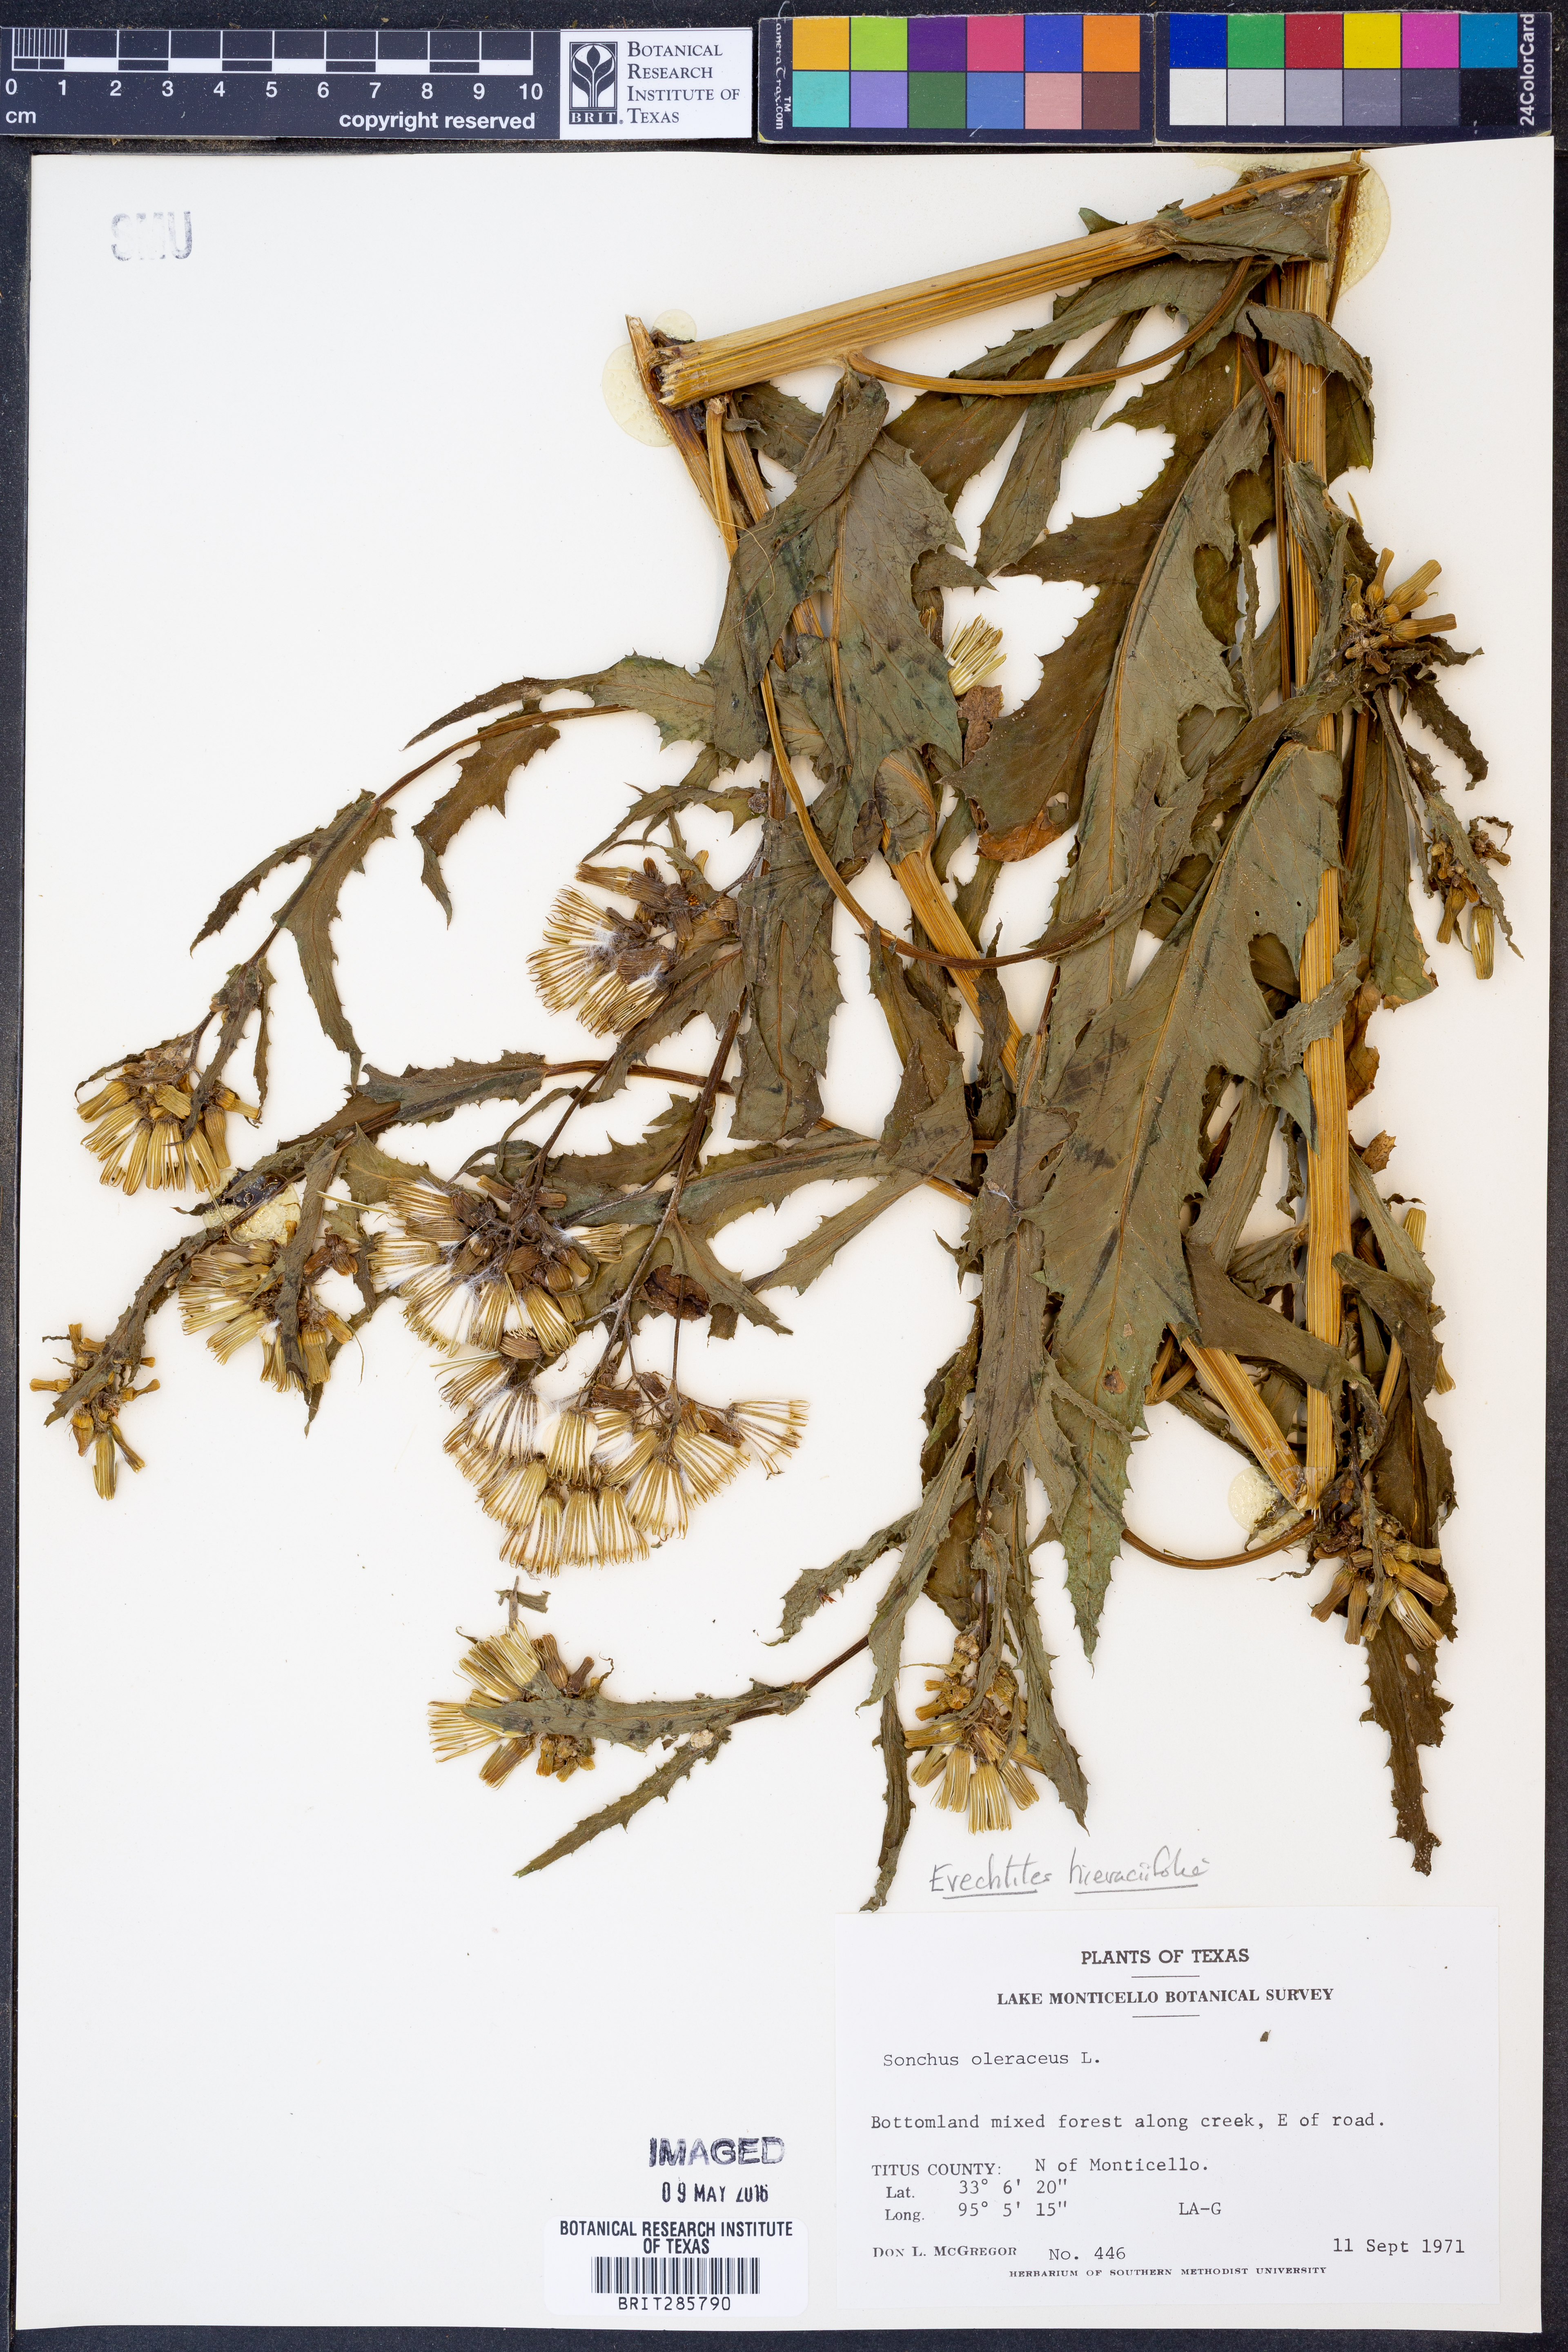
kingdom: Plantae
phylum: Tracheophyta
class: Magnoliopsida
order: Asterales
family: Asteraceae
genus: Erechtites
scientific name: Erechtites hieraciifolius
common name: American burnweed
